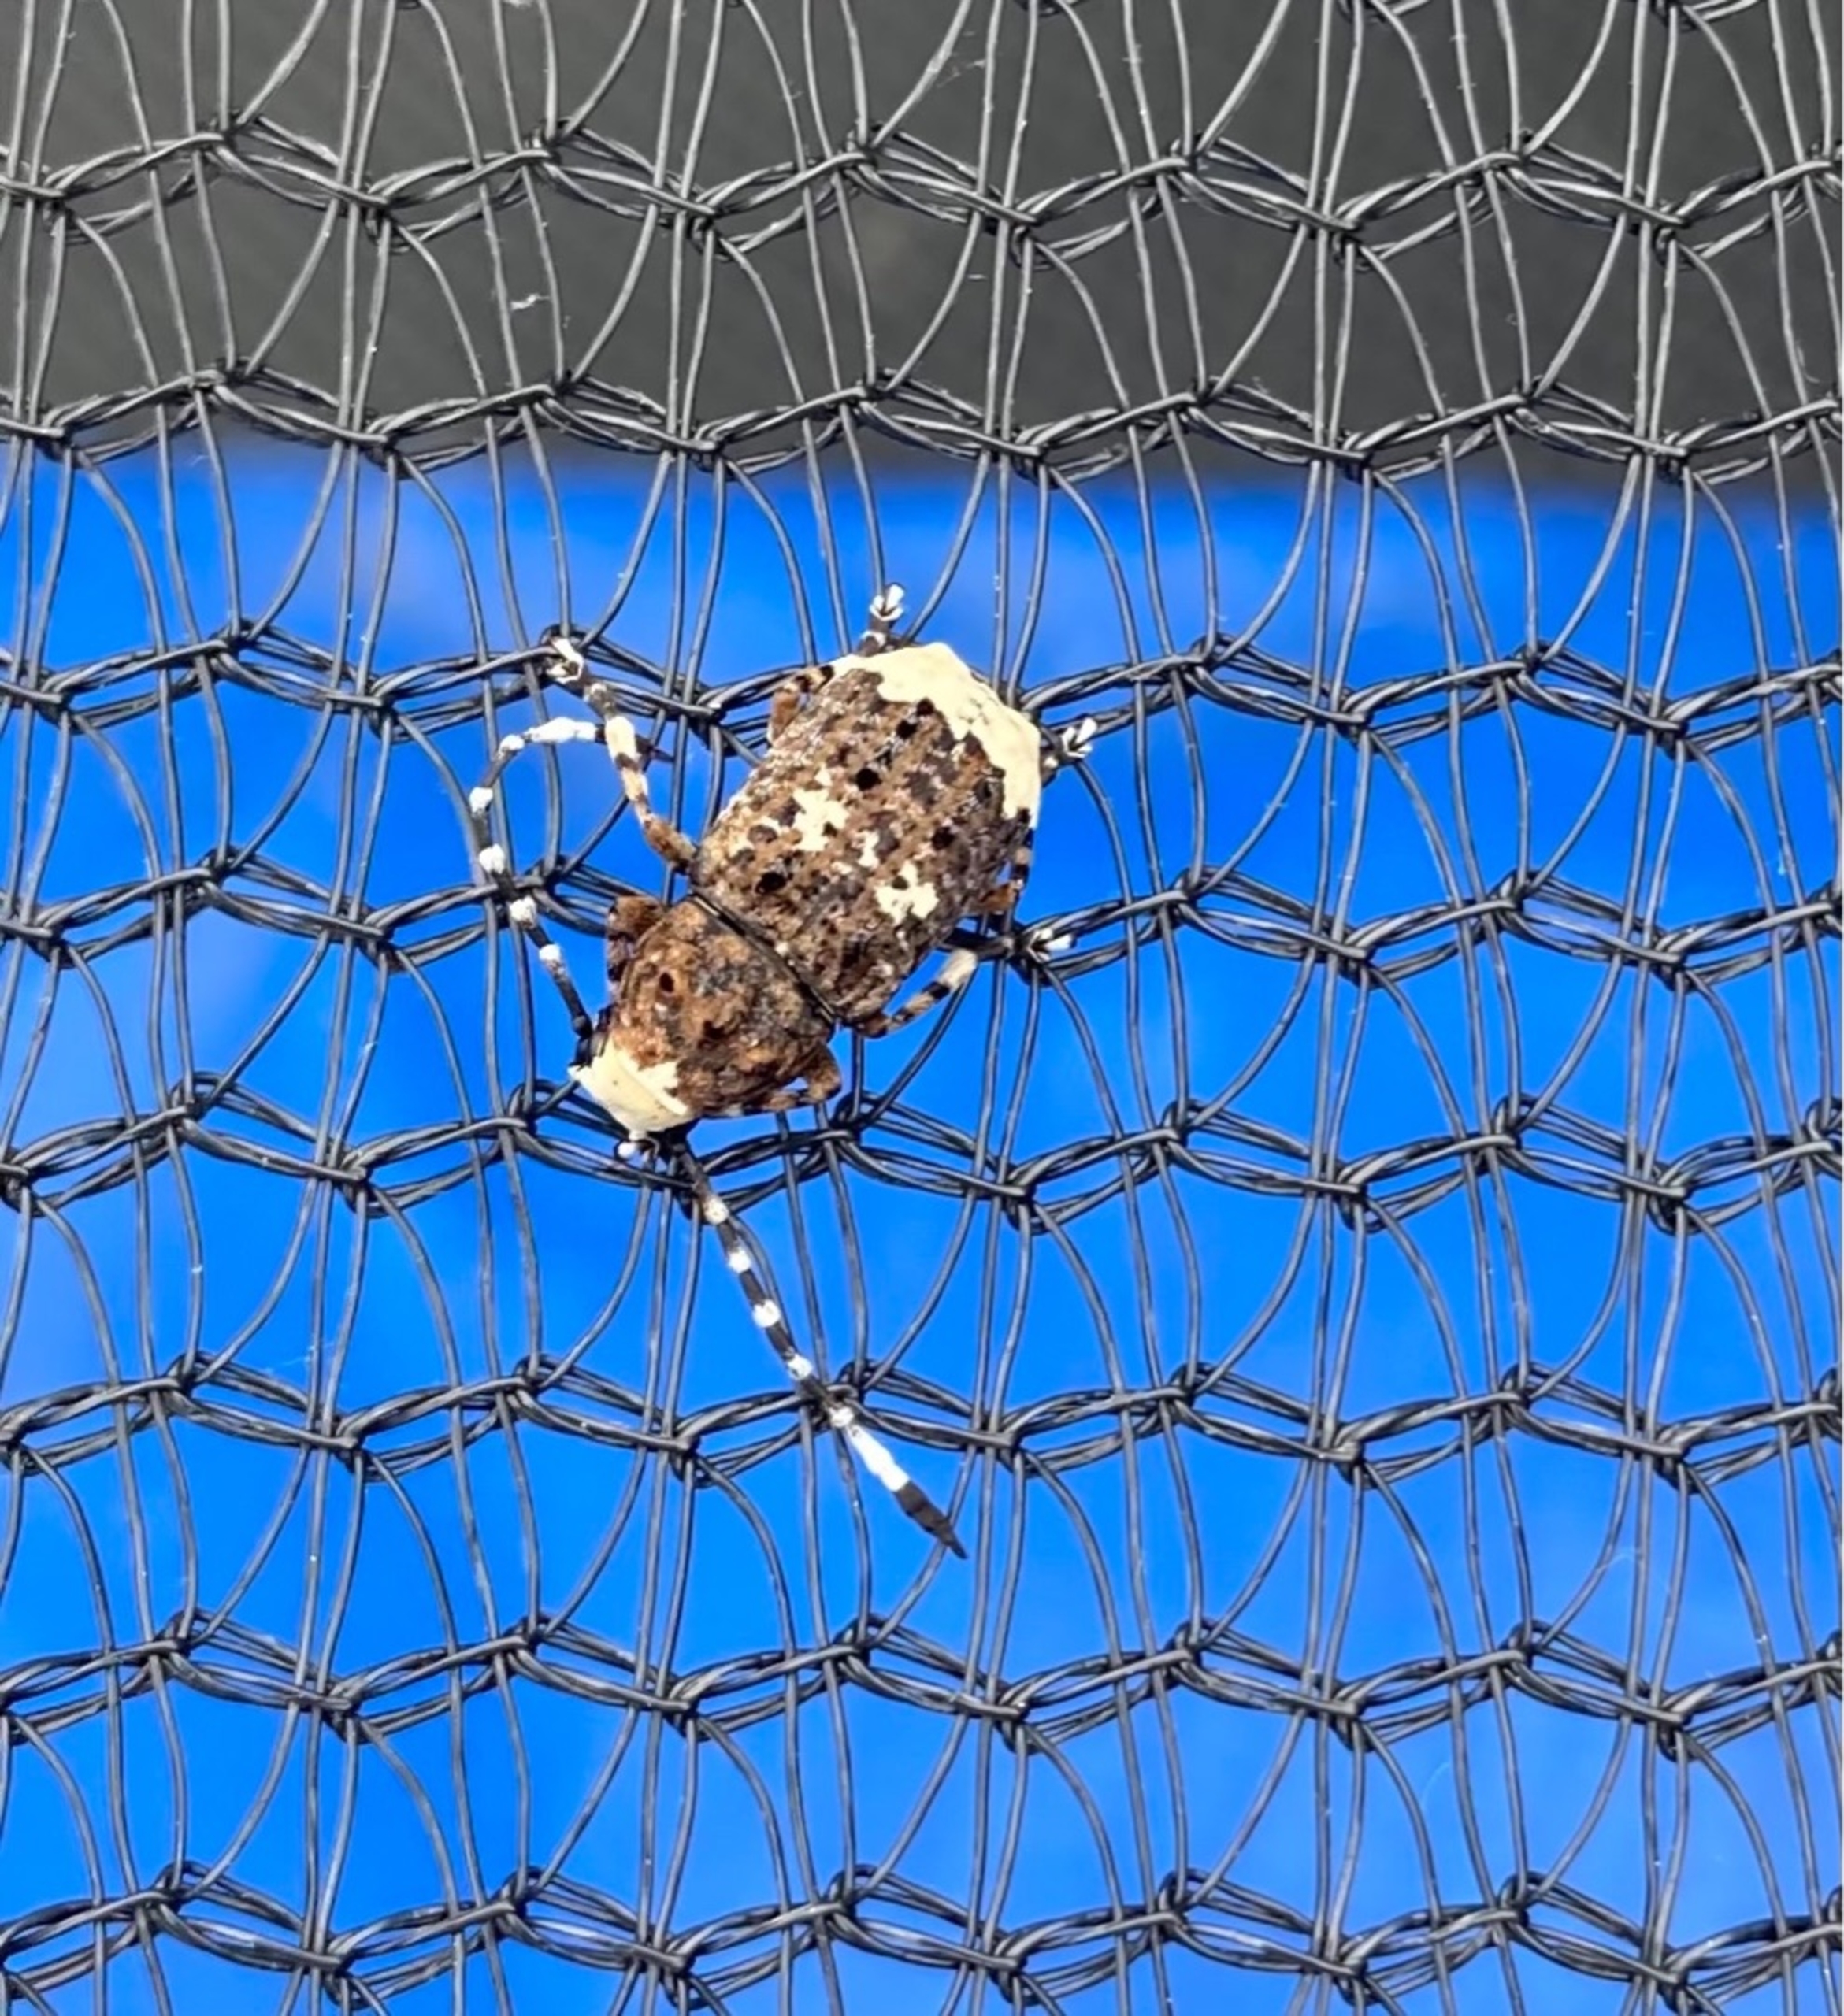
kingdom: Animalia
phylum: Arthropoda
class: Insecta
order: Coleoptera
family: Anthribidae
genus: Platystomos
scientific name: Platystomos albinus
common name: Hvidhovedet bredsnudebille
